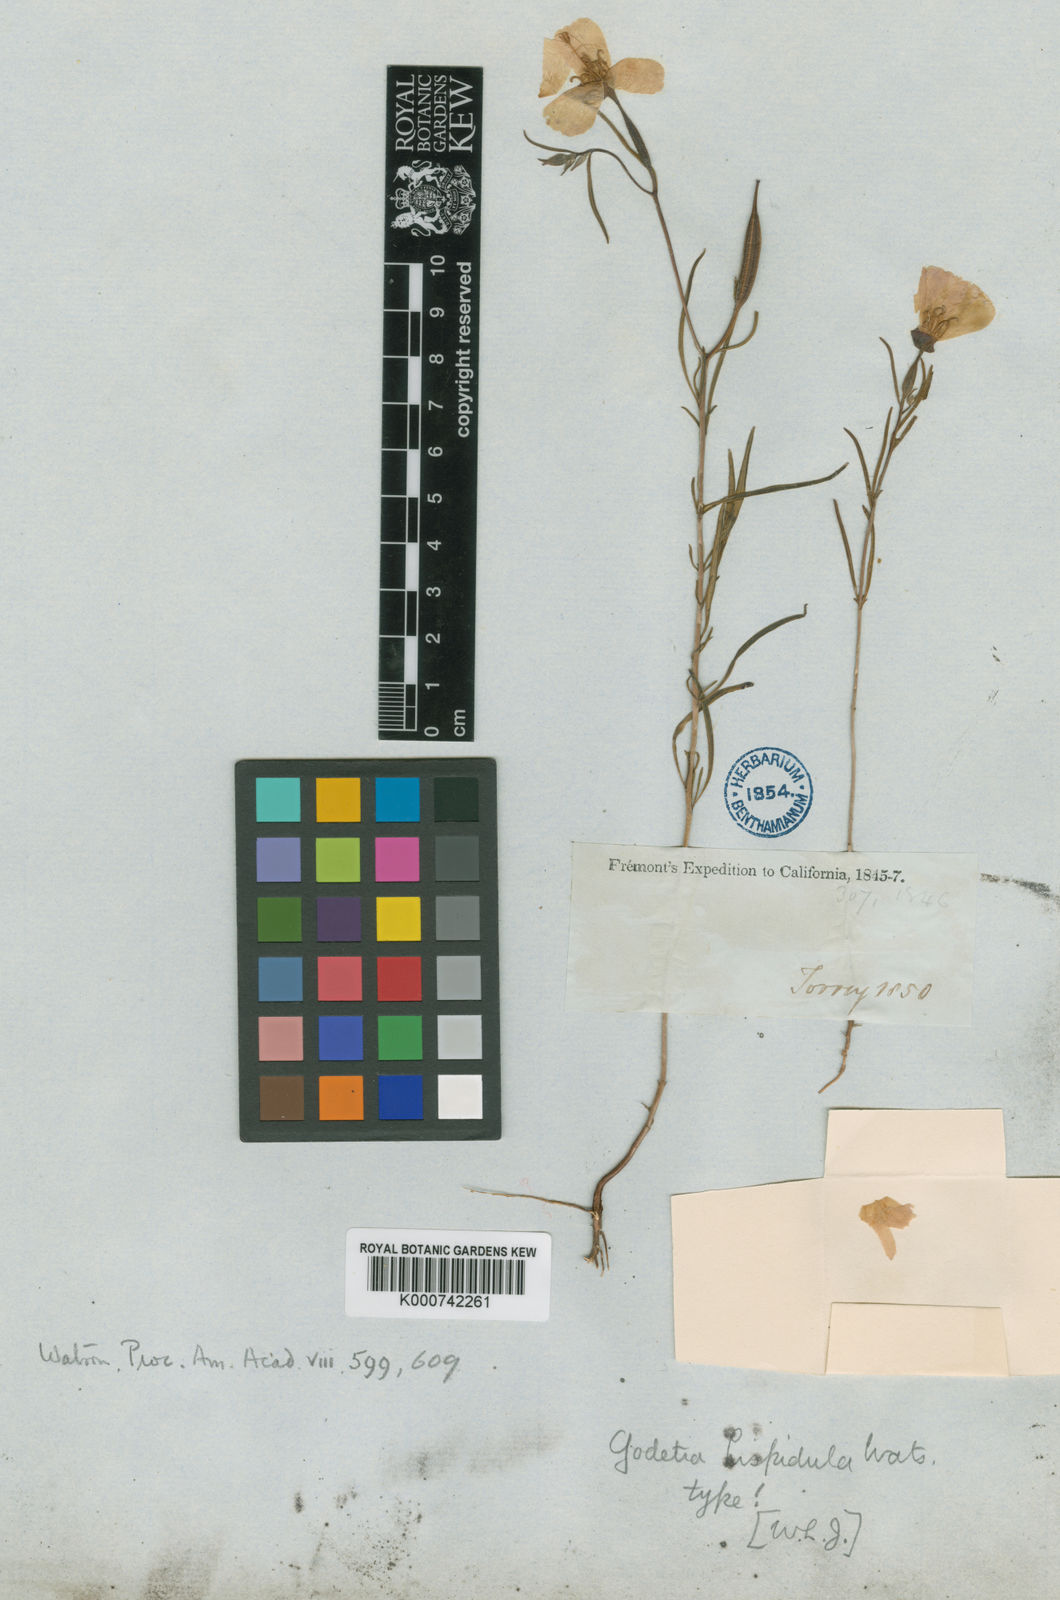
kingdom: Plantae
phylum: Tracheophyta
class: Magnoliopsida
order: Myrtales
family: Onagraceae
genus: Clarkia
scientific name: Clarkia arcuata
